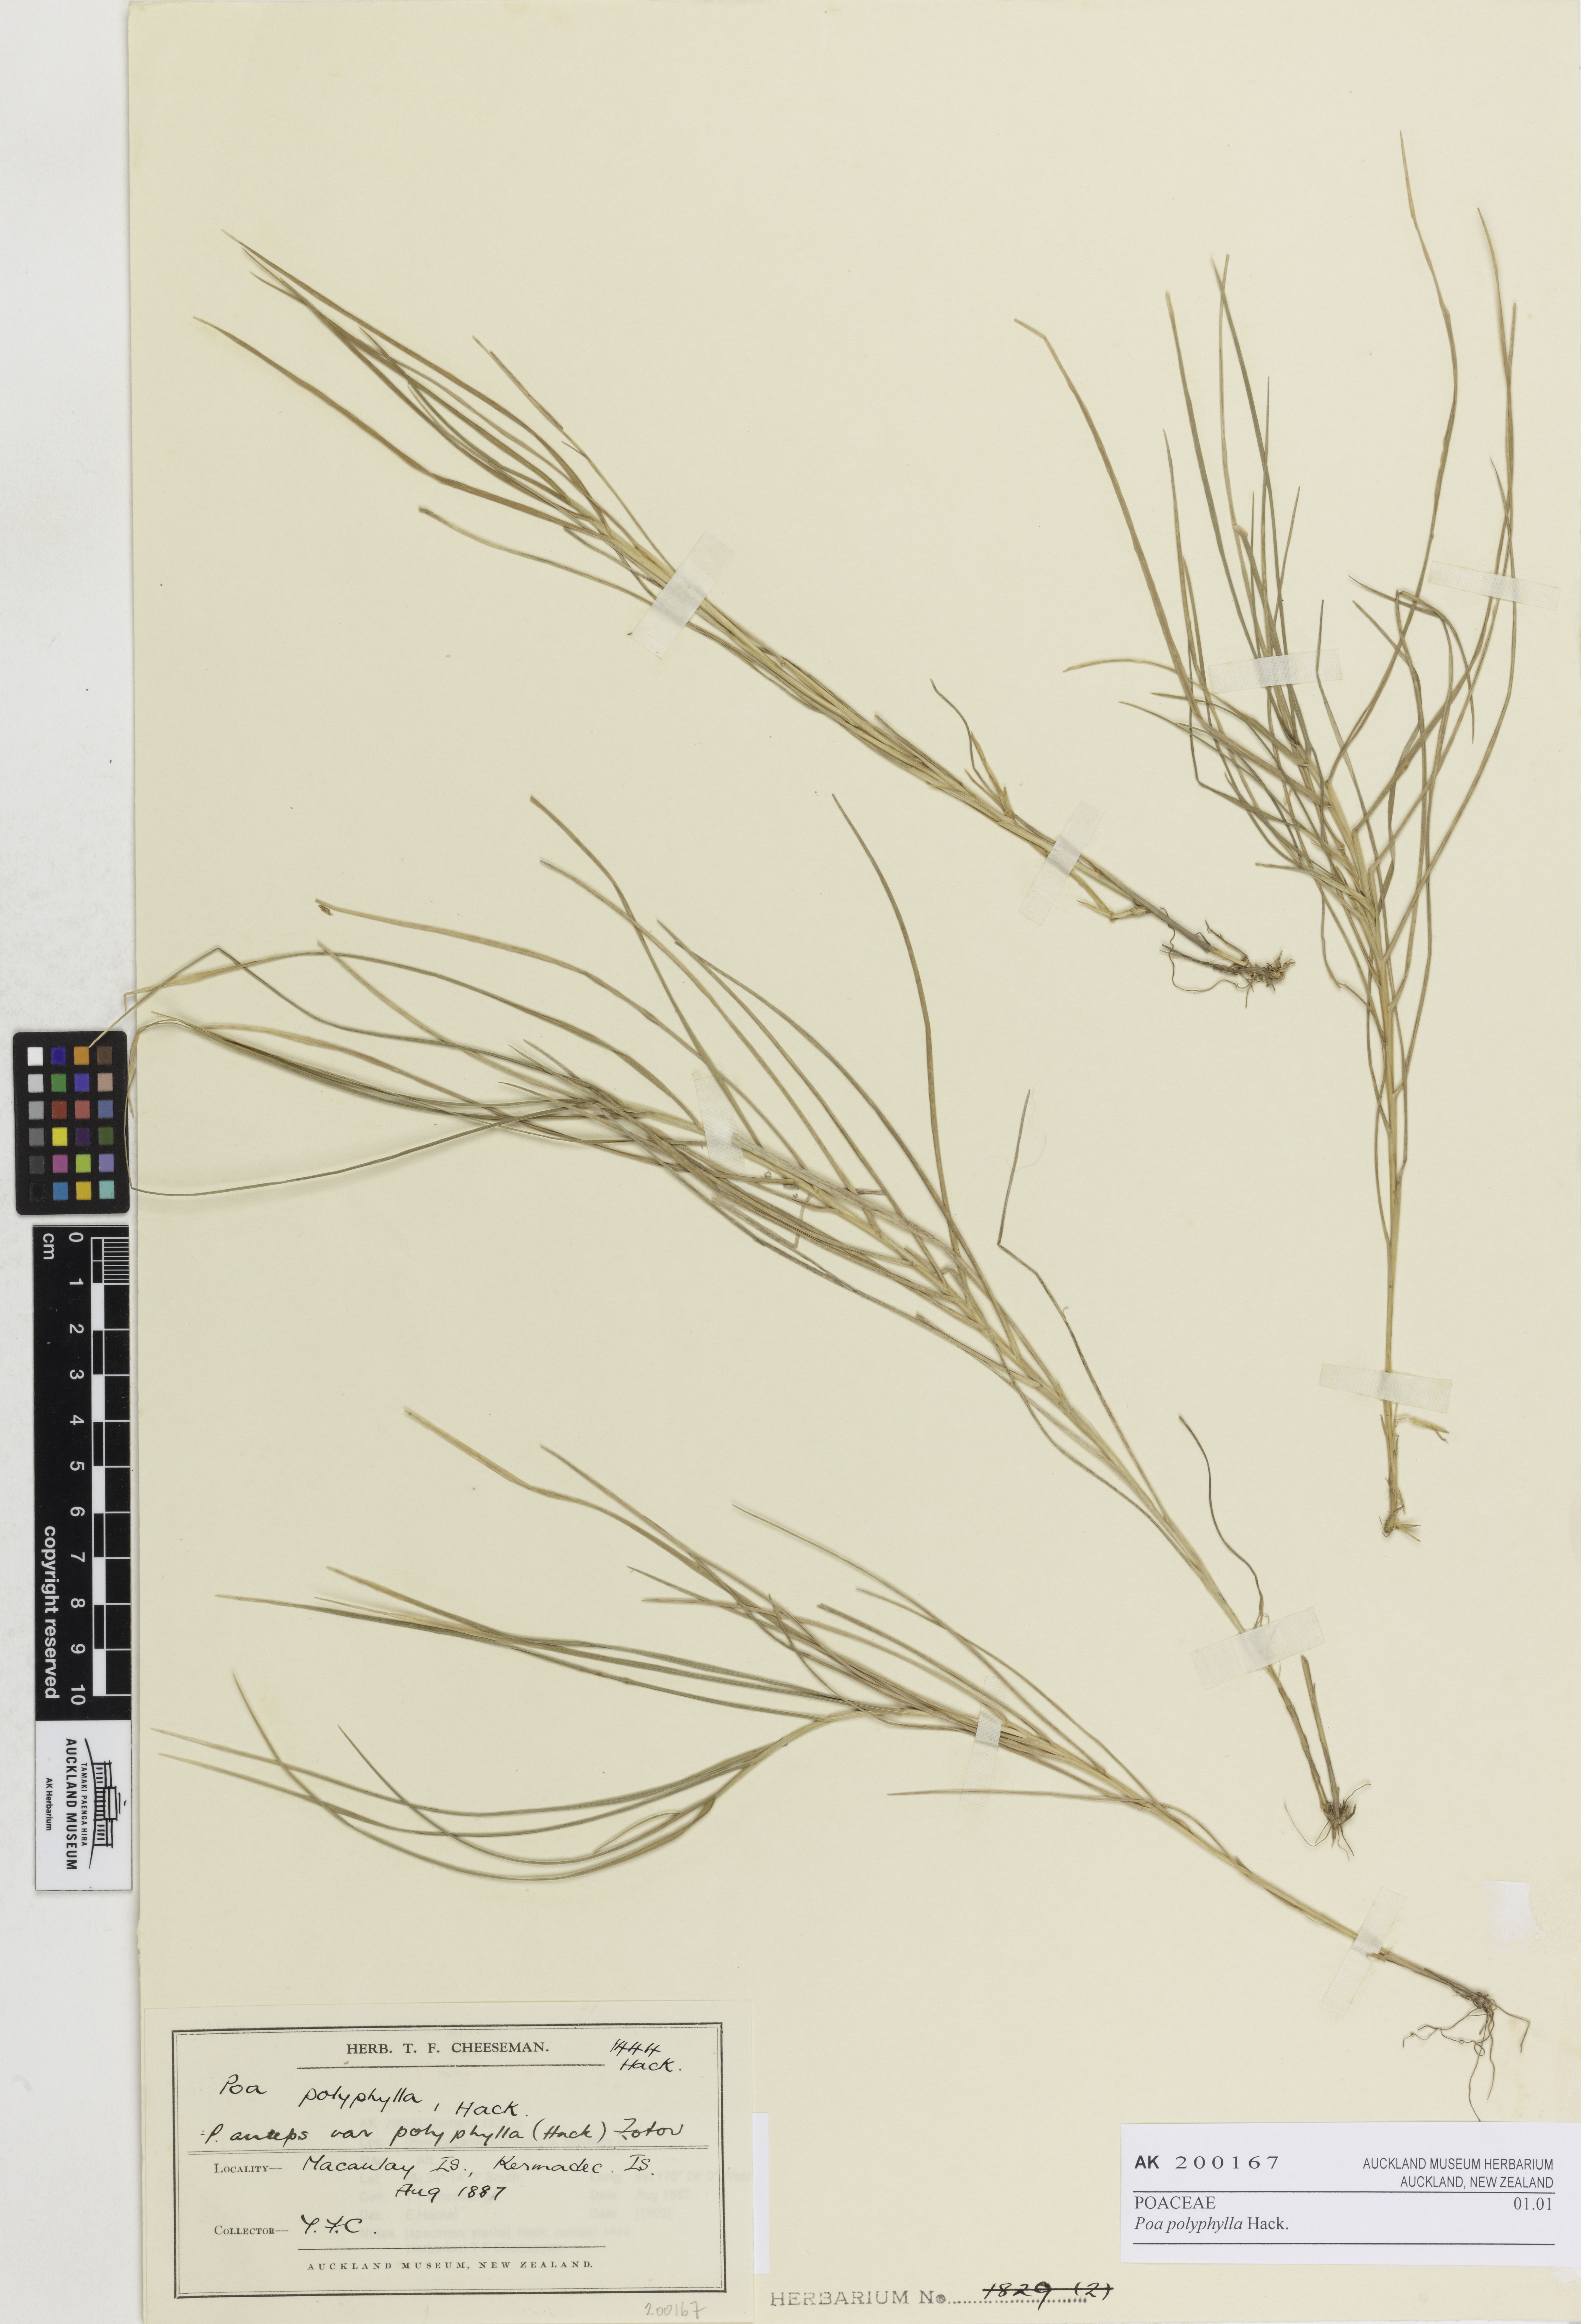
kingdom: Plantae
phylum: Tracheophyta
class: Liliopsida
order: Poales
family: Poaceae
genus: Poa
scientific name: Poa anceps
